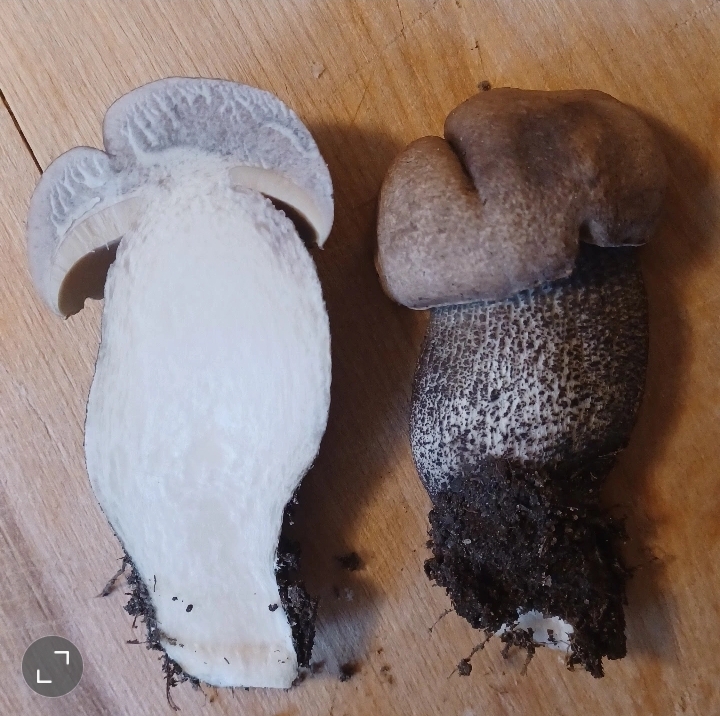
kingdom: Fungi
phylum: Basidiomycota
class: Agaricomycetes
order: Boletales
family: Boletaceae
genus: Leccinum
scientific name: Leccinum duriusculum
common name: poppel-skælrørhat
